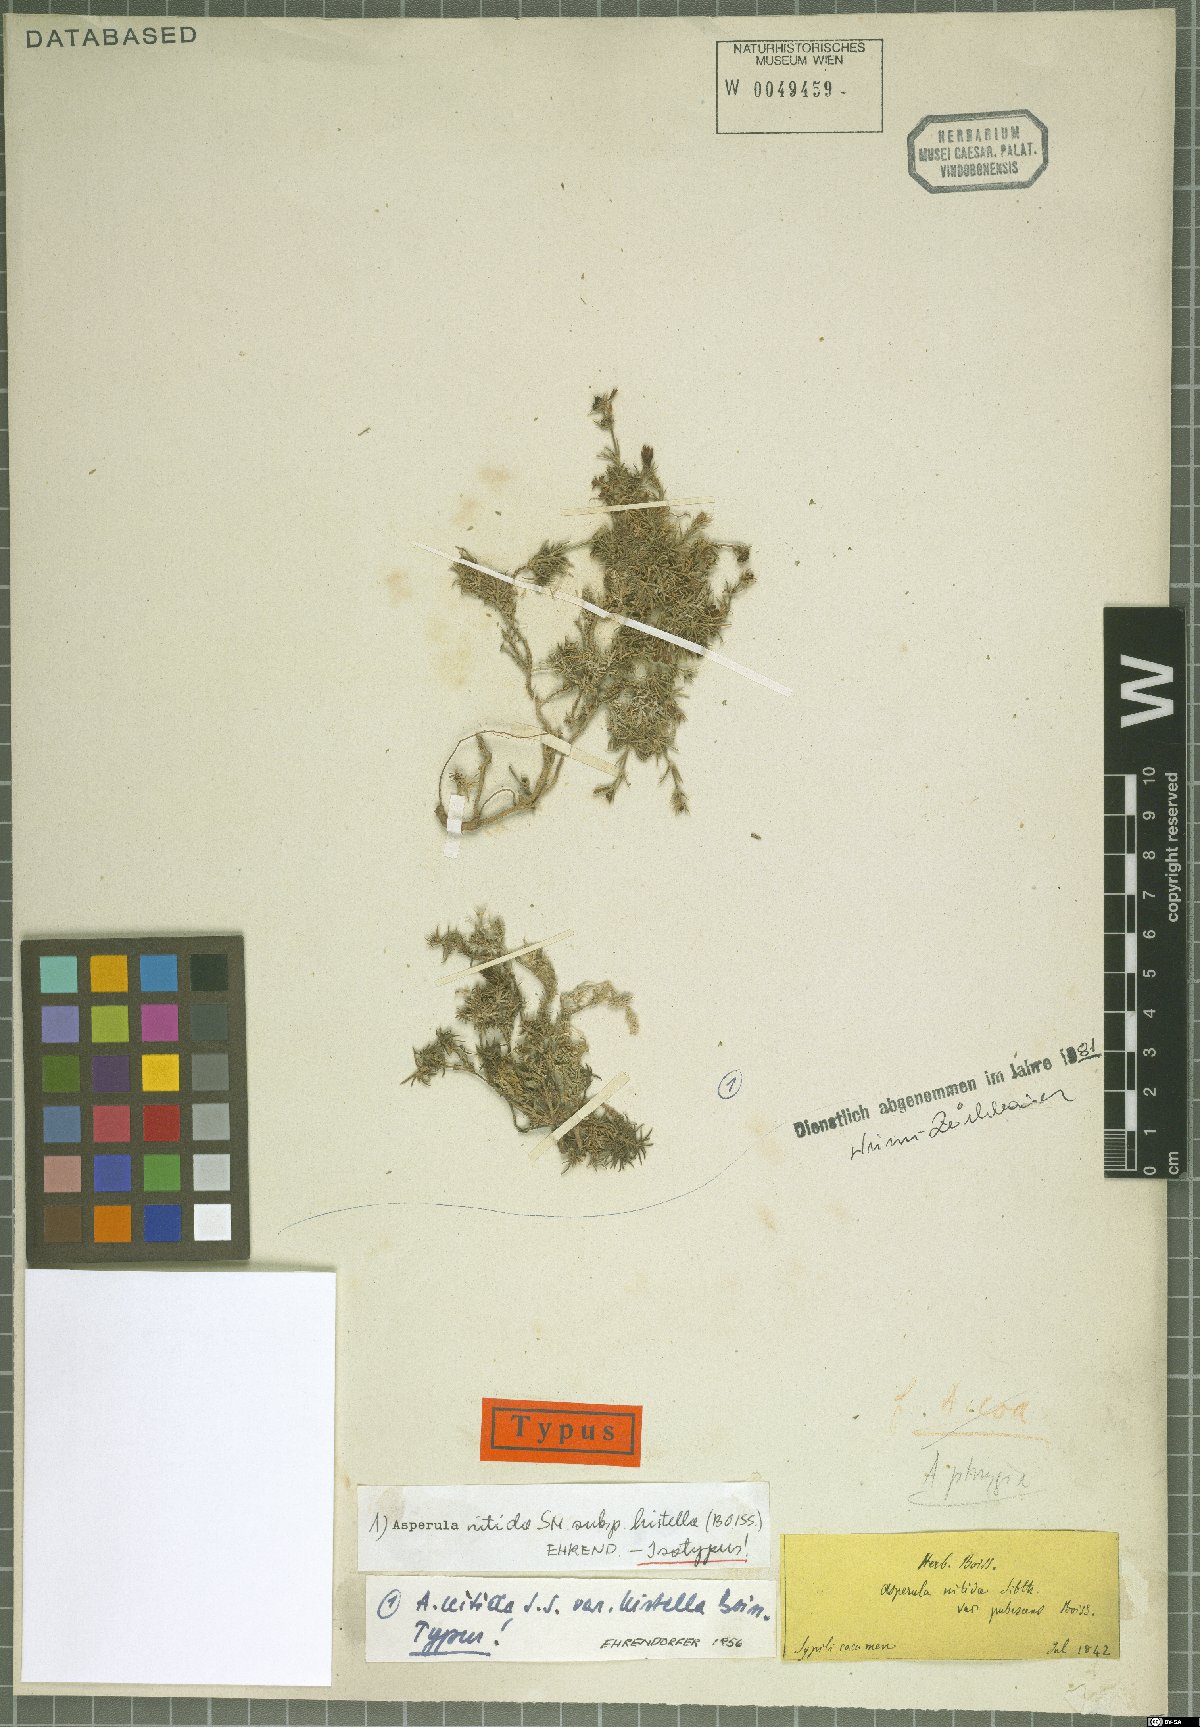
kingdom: Plantae
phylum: Tracheophyta
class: Magnoliopsida
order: Gentianales
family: Rubiaceae
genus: Cynanchica
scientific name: Cynanchica nitida
